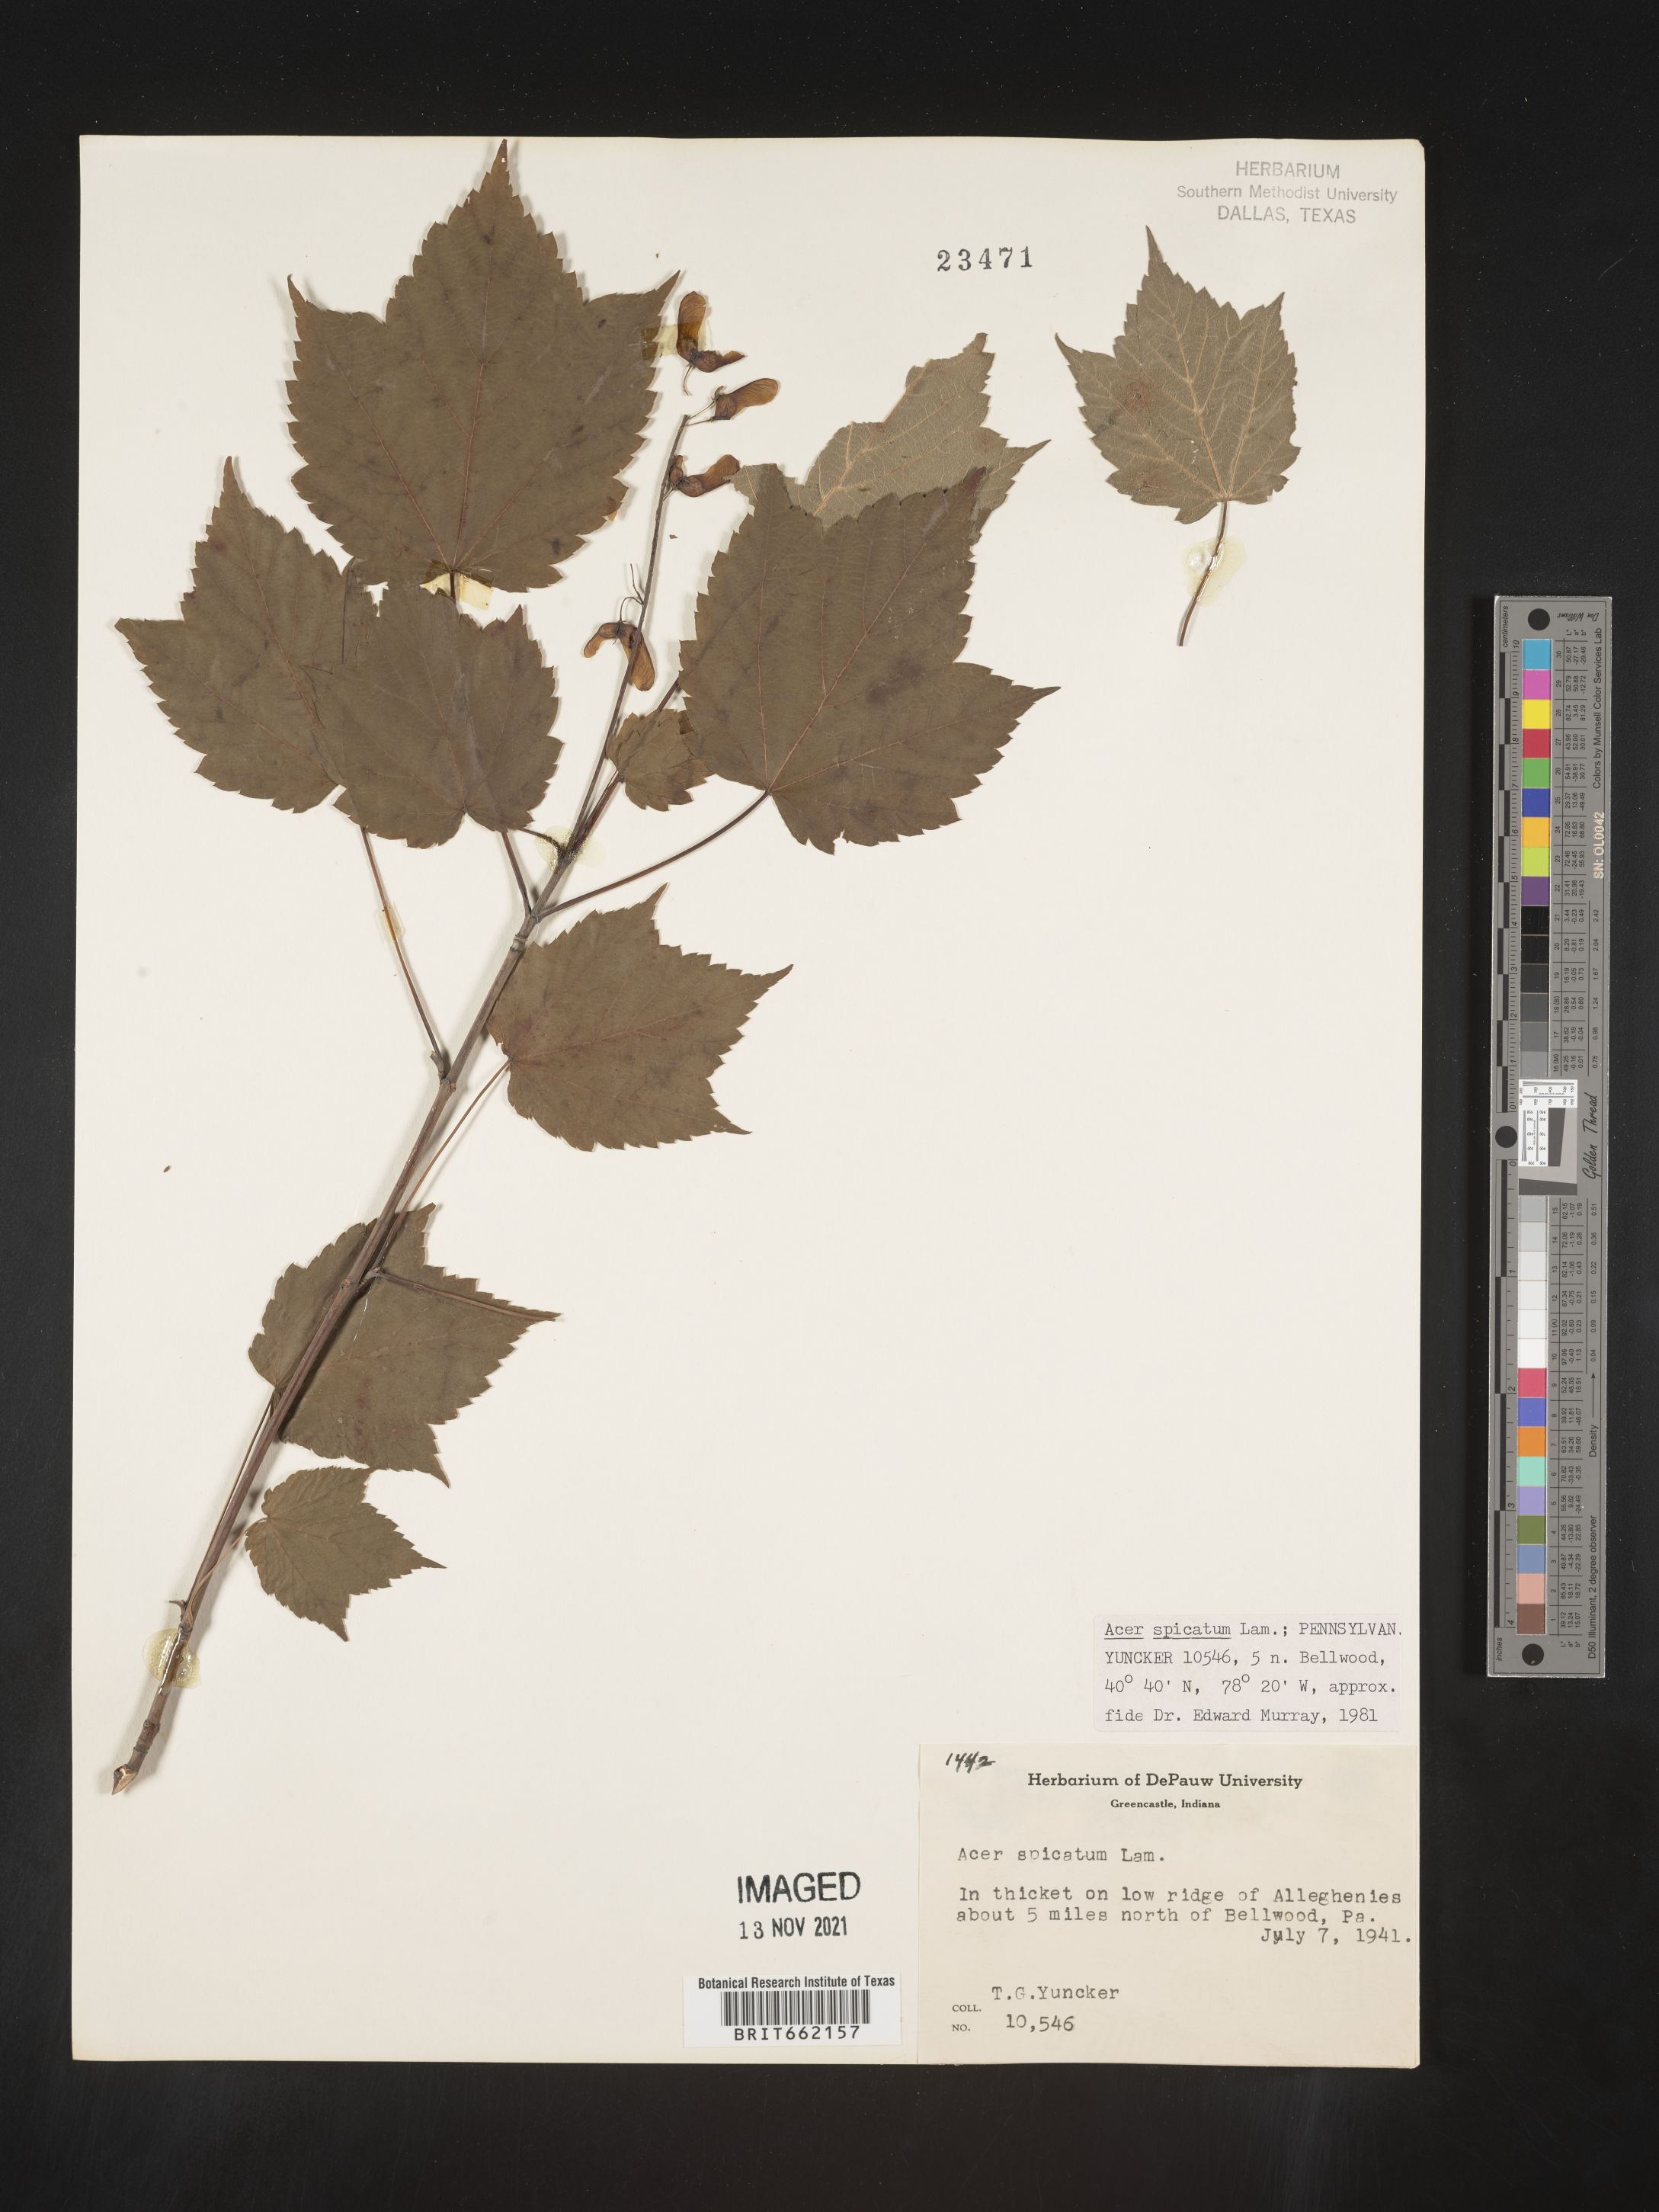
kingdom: Plantae
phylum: Tracheophyta
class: Magnoliopsida
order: Sapindales
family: Sapindaceae
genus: Acer
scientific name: Acer spicatum
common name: Mountain maple
